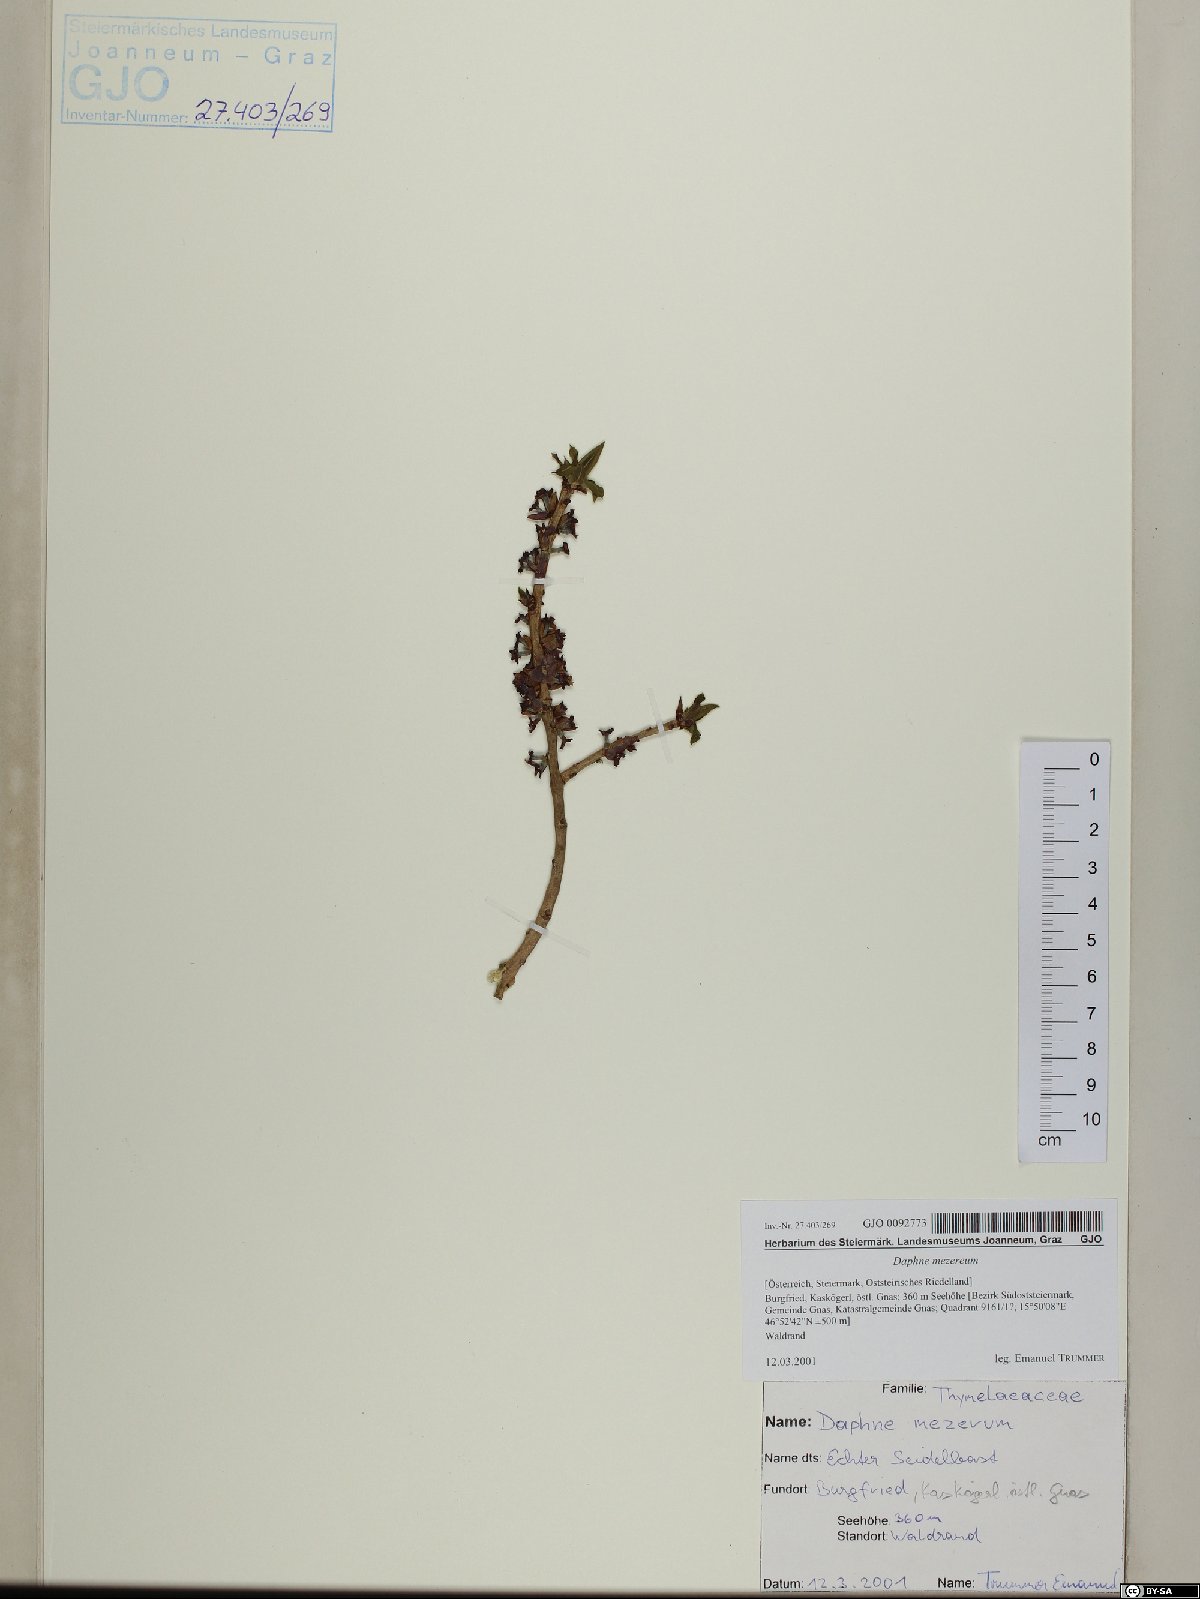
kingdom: Plantae
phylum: Tracheophyta
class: Magnoliopsida
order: Malvales
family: Thymelaeaceae
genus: Daphne
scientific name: Daphne mezereum
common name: Mezereon
